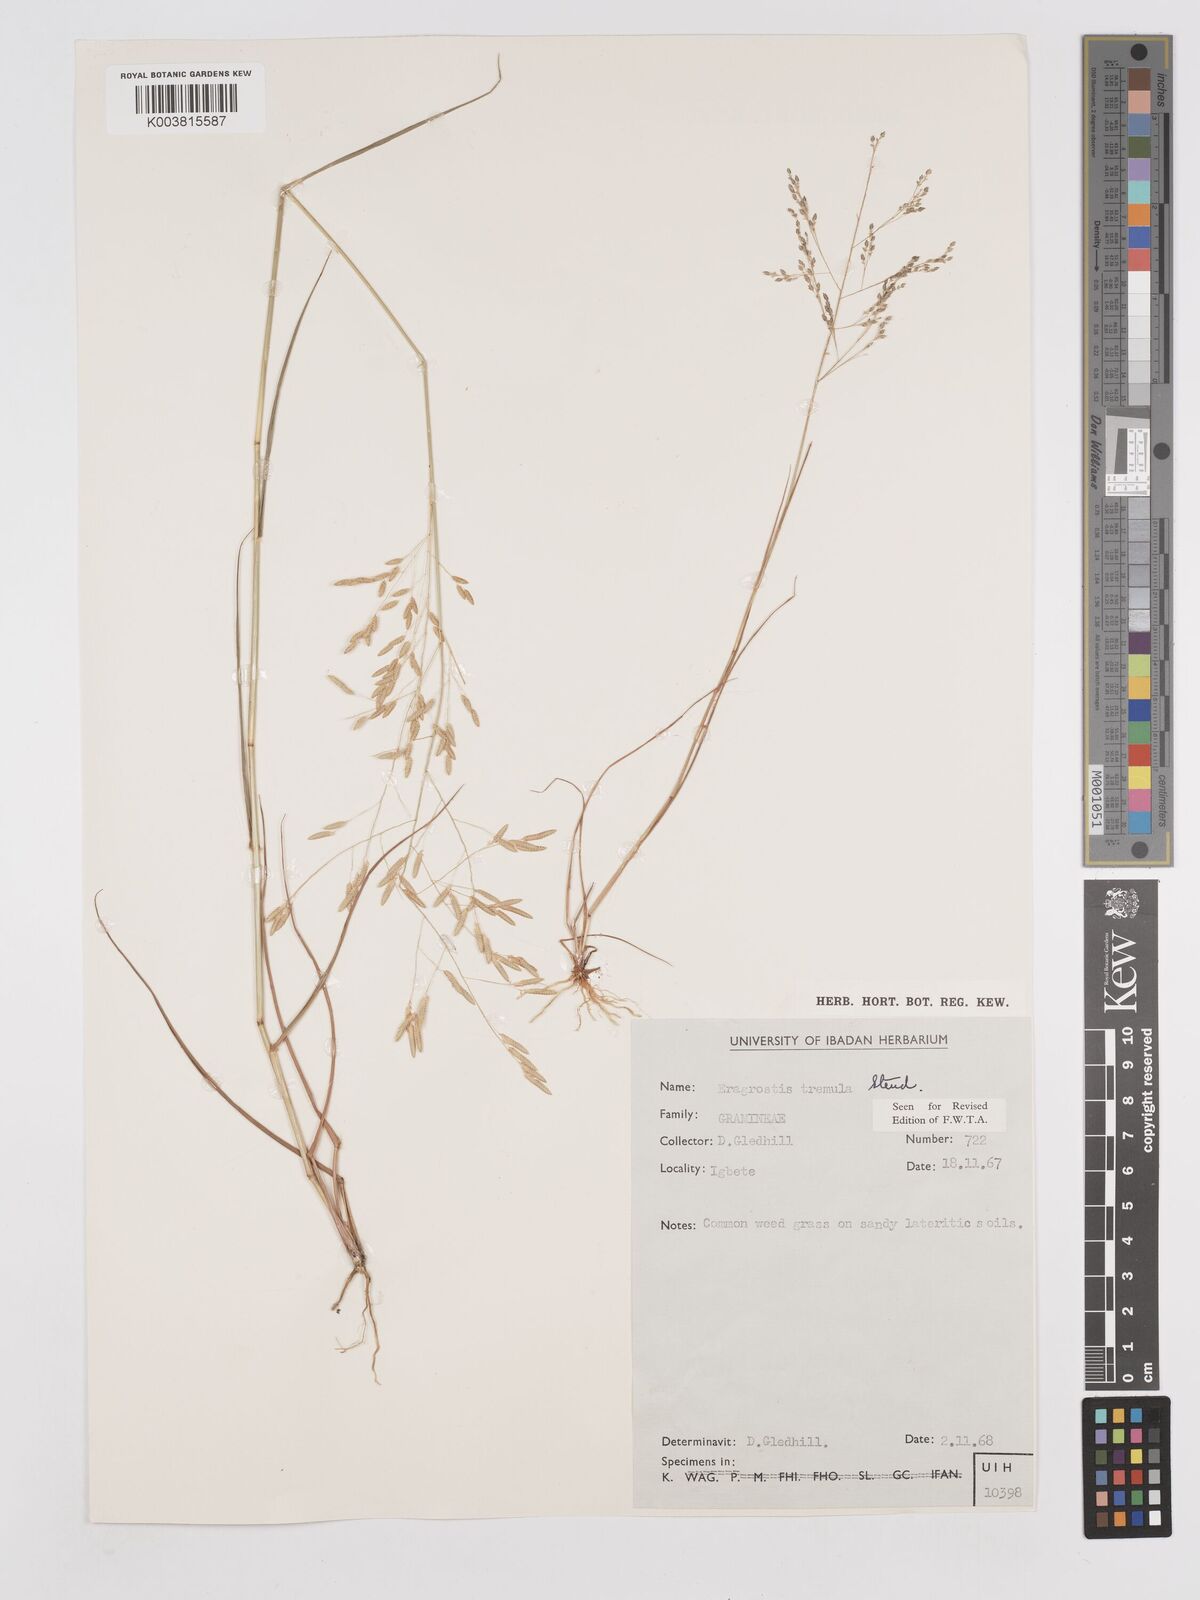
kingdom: Plantae
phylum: Tracheophyta
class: Liliopsida
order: Poales
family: Poaceae
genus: Eragrostis
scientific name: Eragrostis tremula
